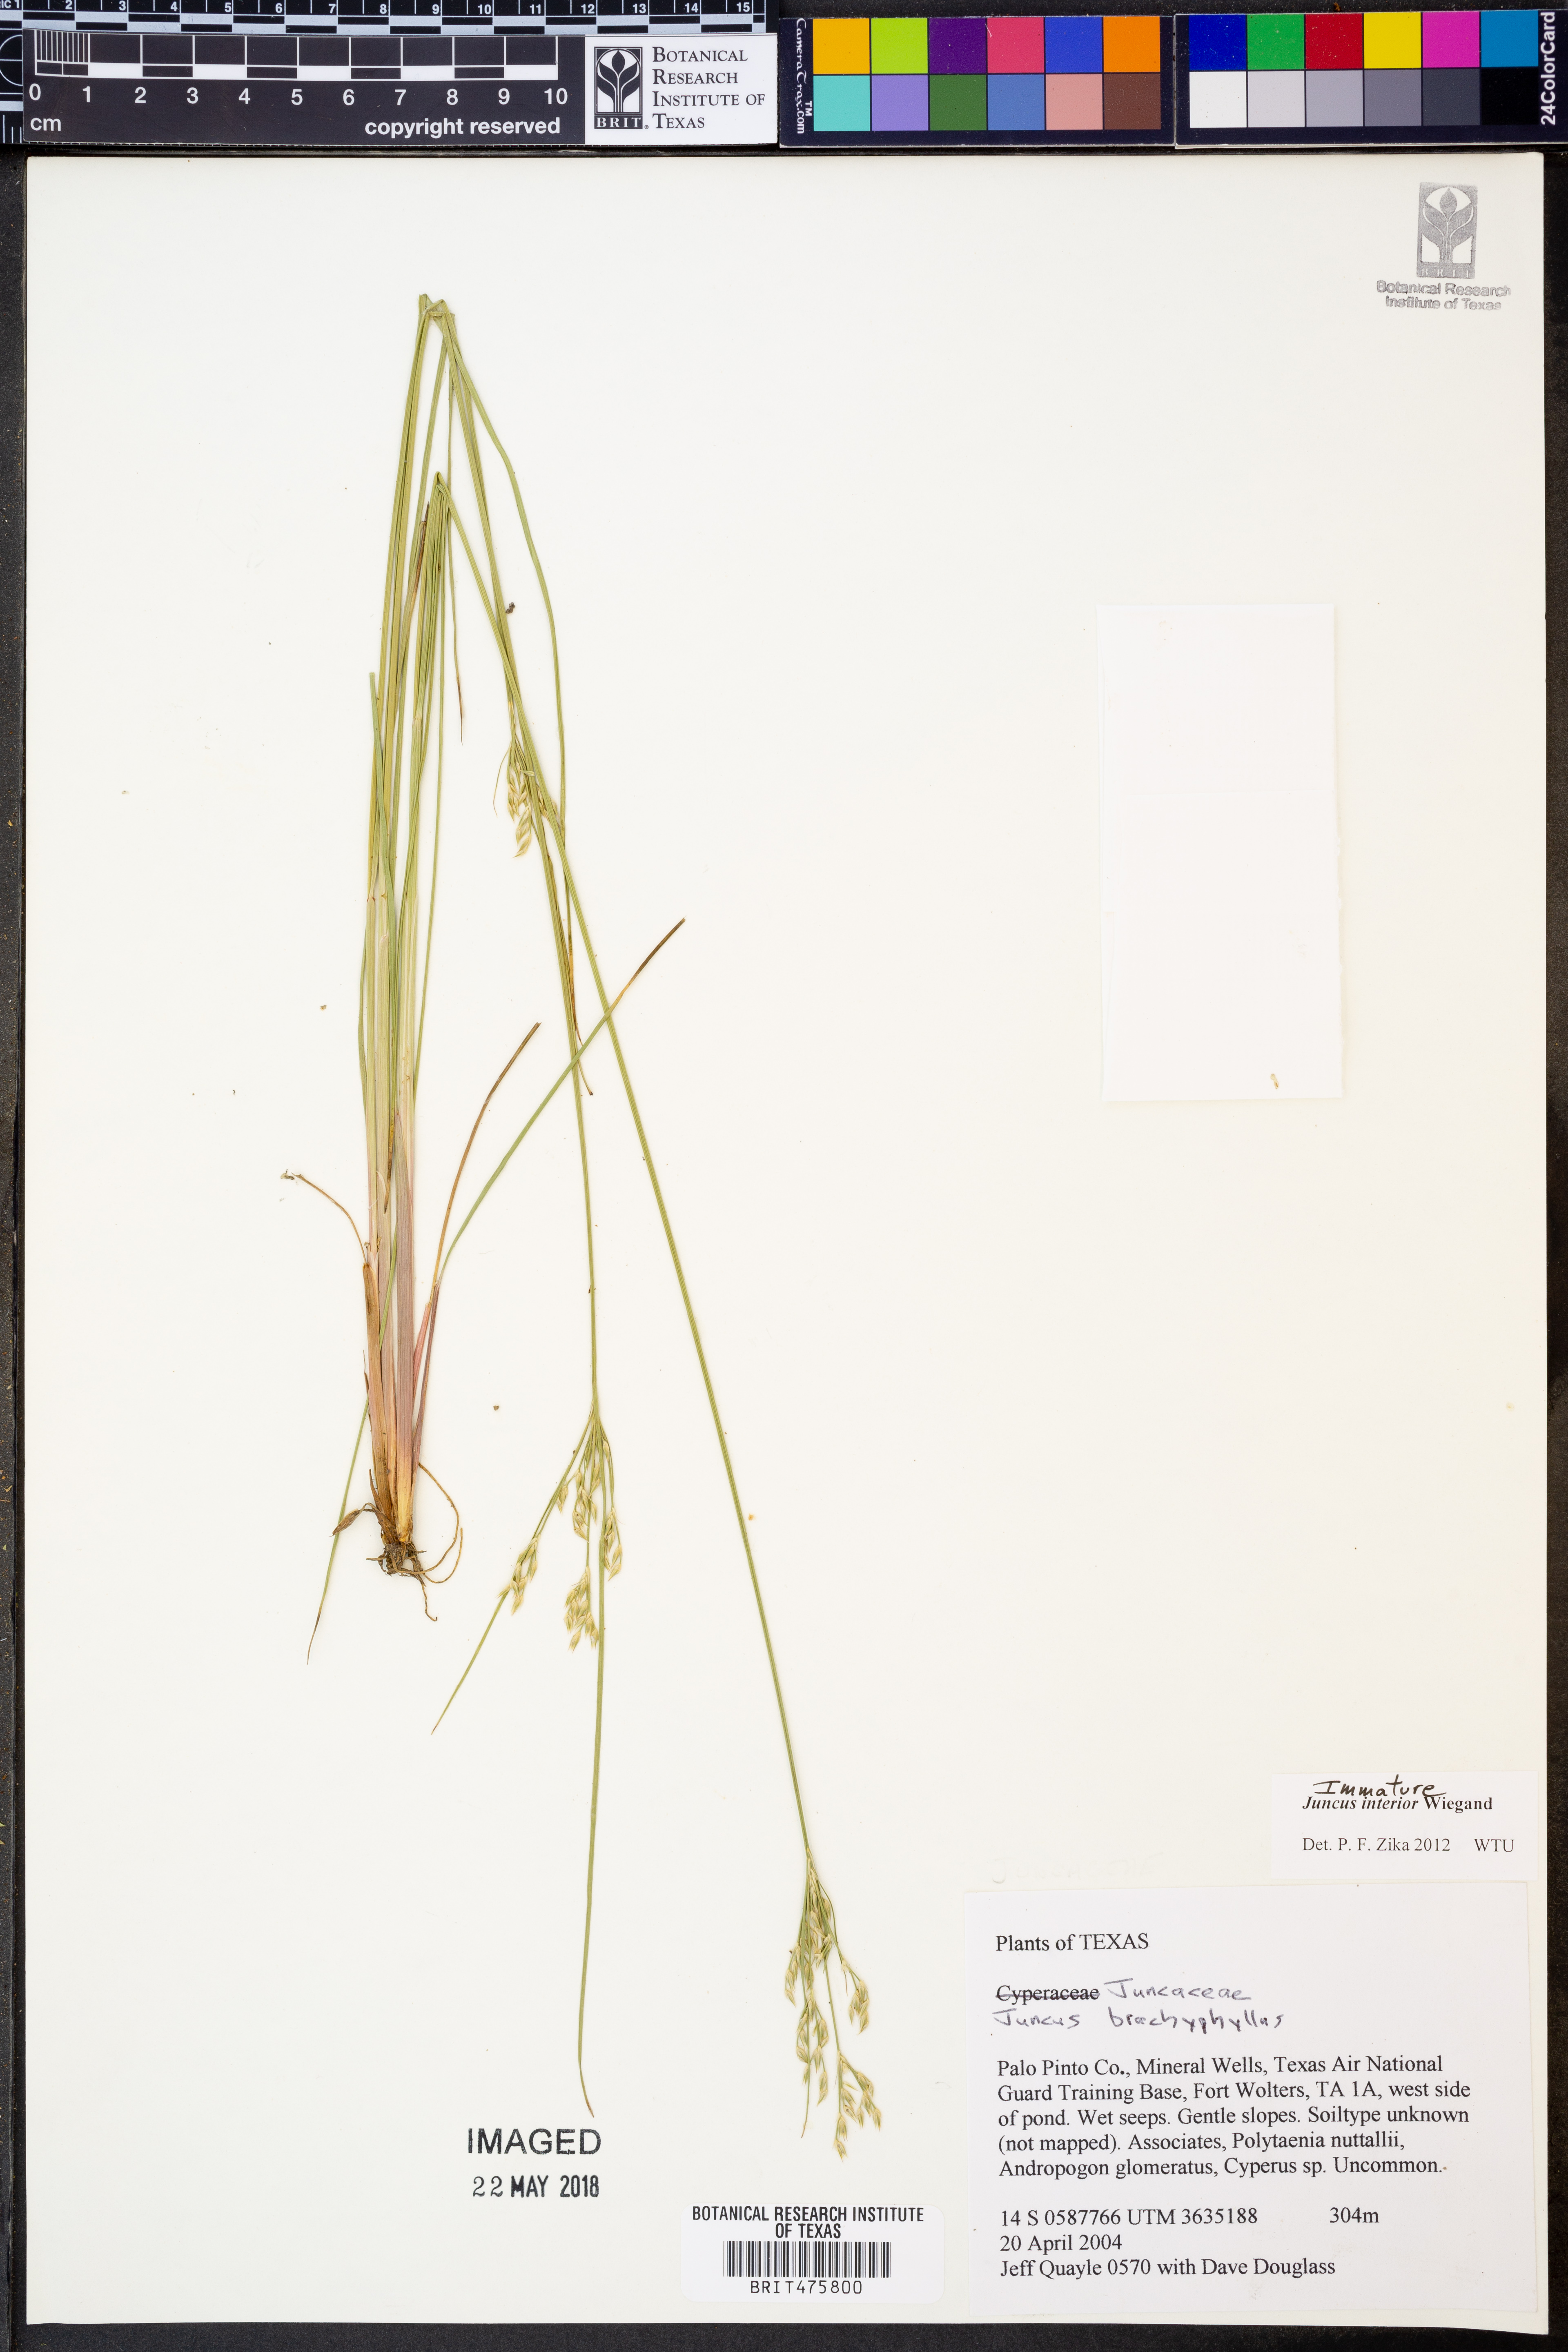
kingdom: Plantae
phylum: Tracheophyta
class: Liliopsida
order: Poales
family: Juncaceae
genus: Juncus
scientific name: Juncus interior
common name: Interior rush
